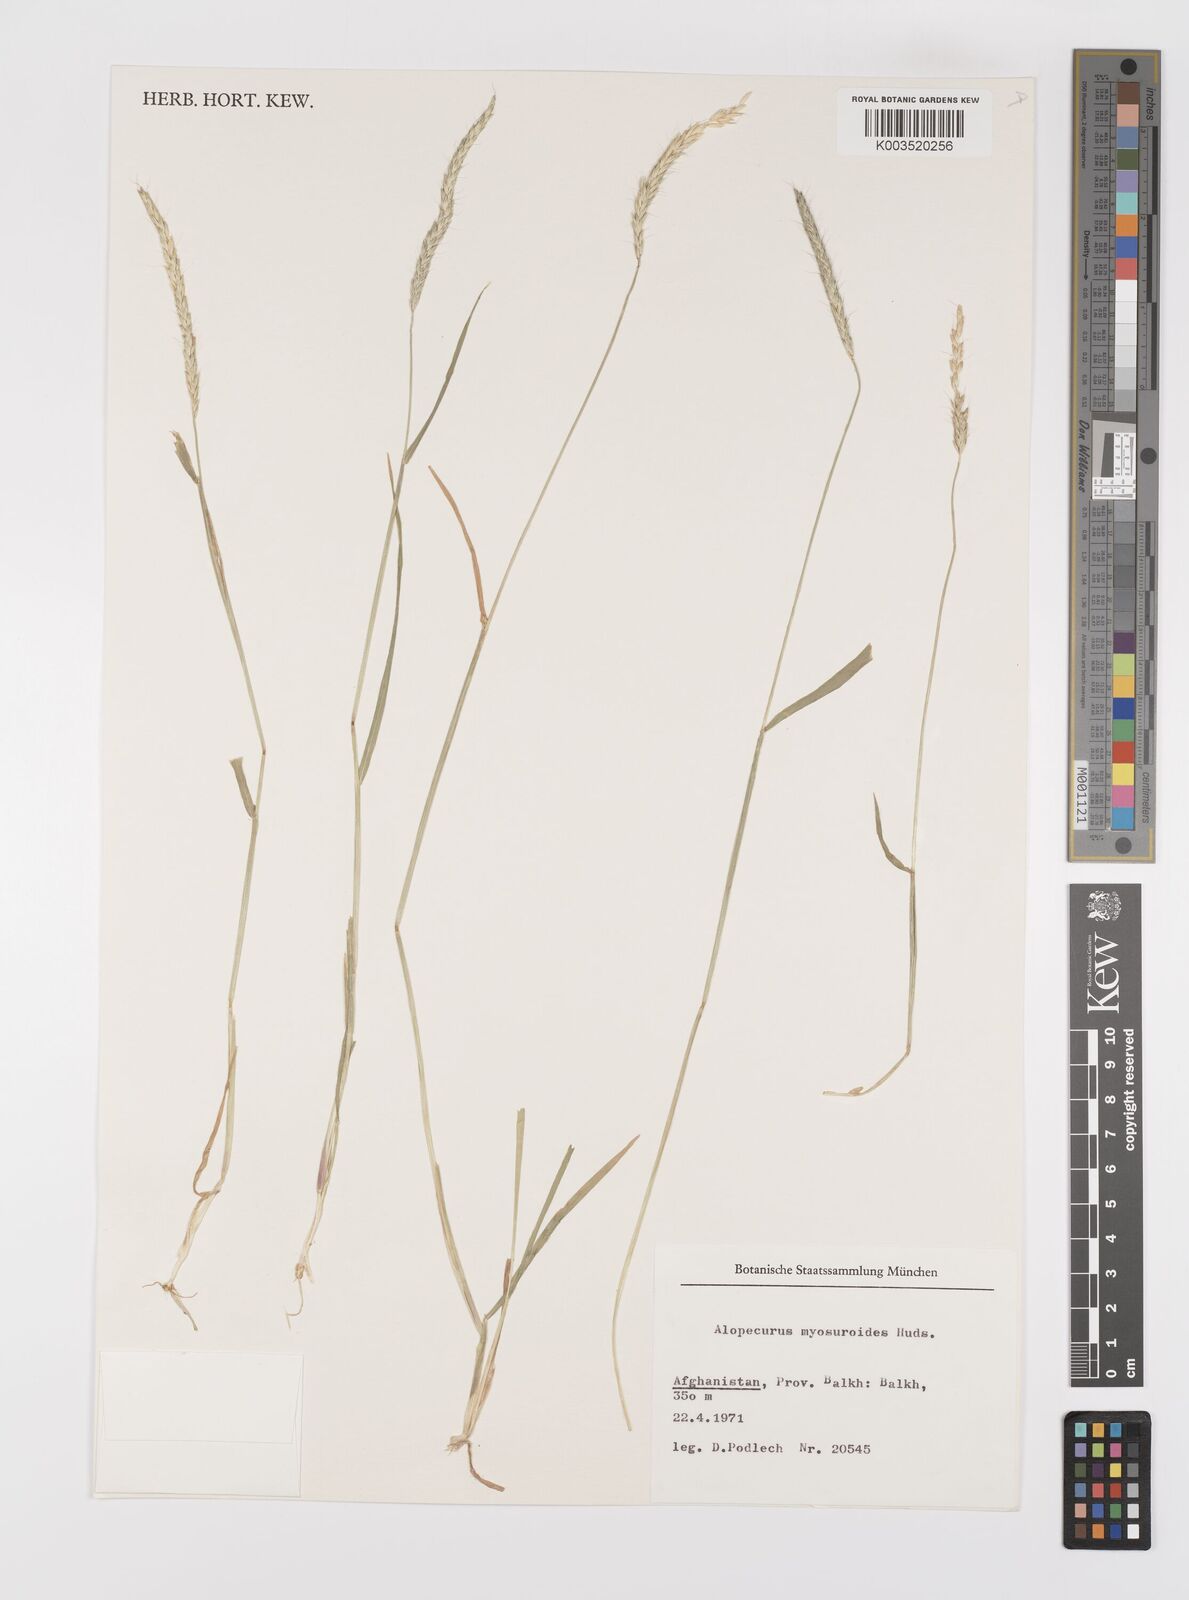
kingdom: Plantae
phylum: Tracheophyta
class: Liliopsida
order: Poales
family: Poaceae
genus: Alopecurus
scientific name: Alopecurus myosuroides
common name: Black-grass
